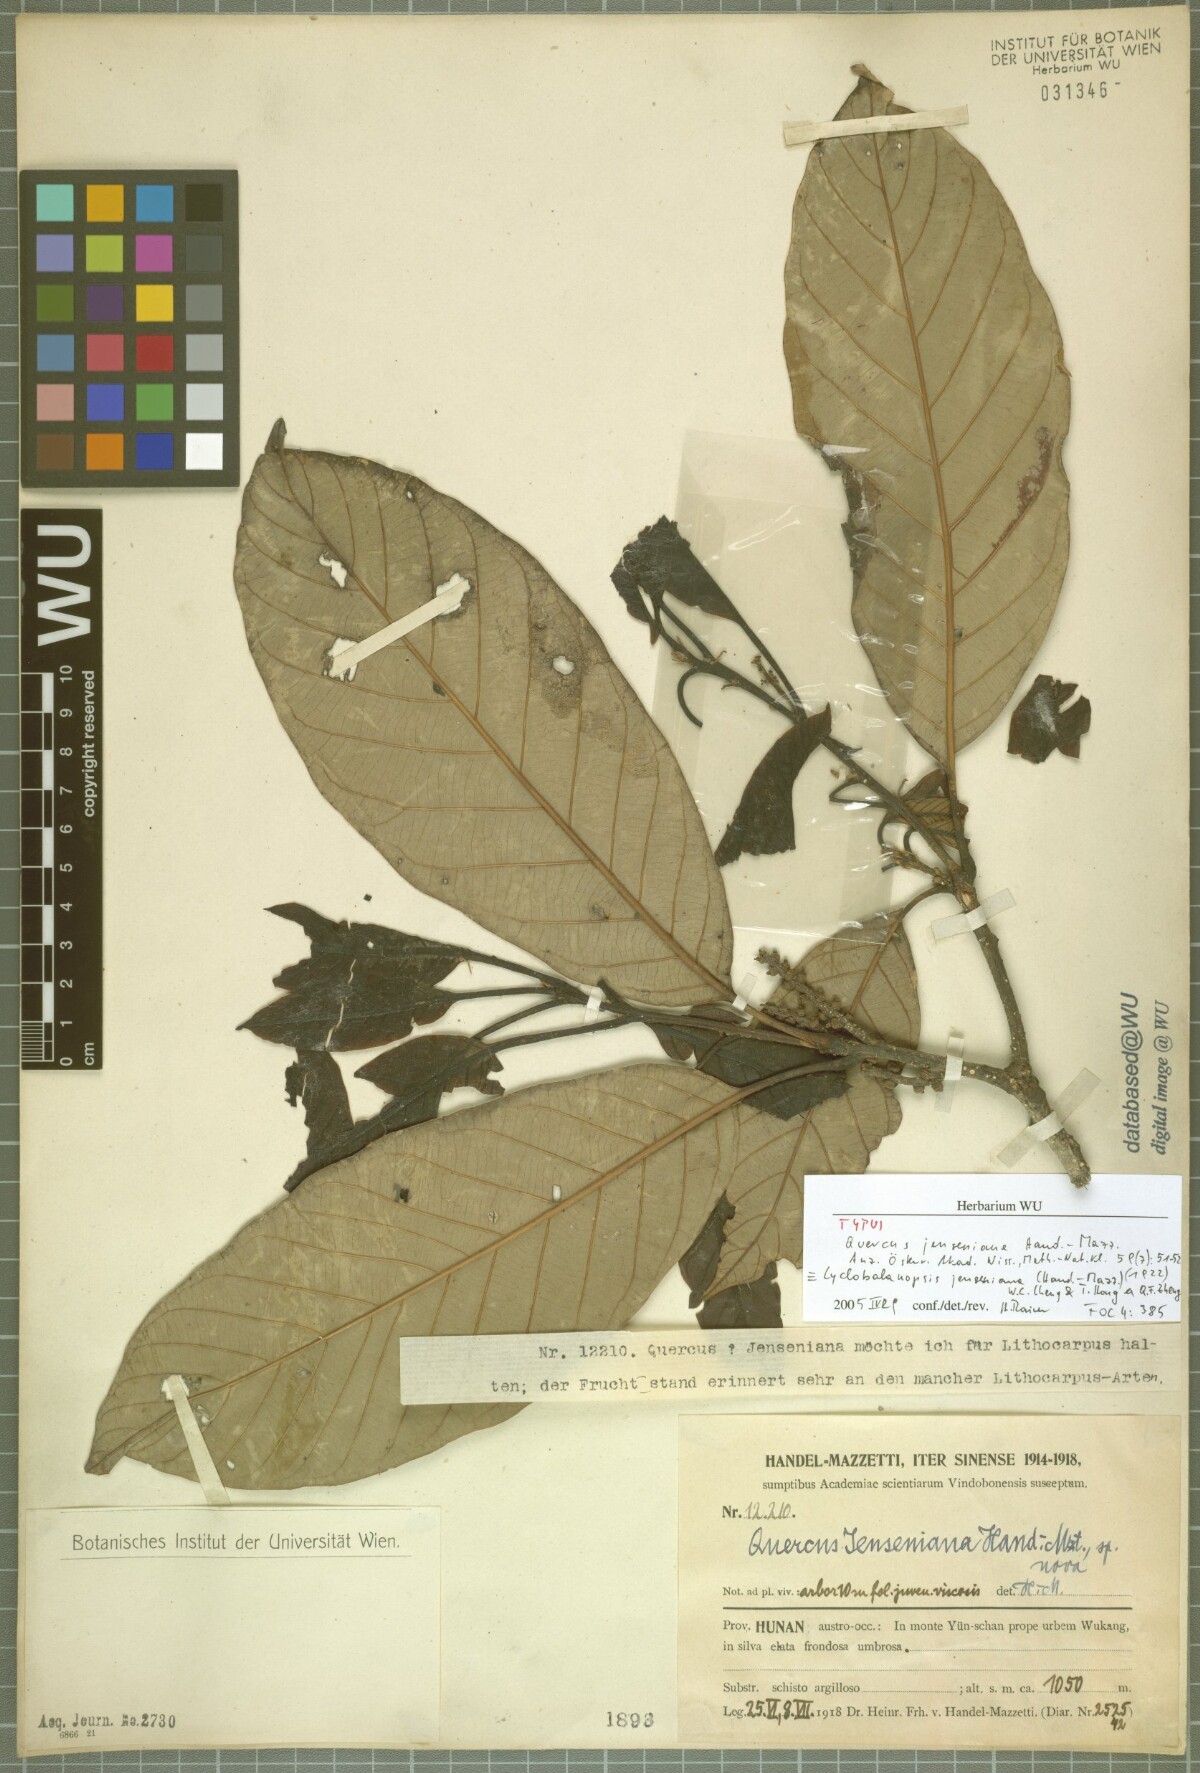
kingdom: Plantae
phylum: Tracheophyta
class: Magnoliopsida
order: Fagales
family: Fagaceae
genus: Quercus
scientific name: Quercus jenseniana
